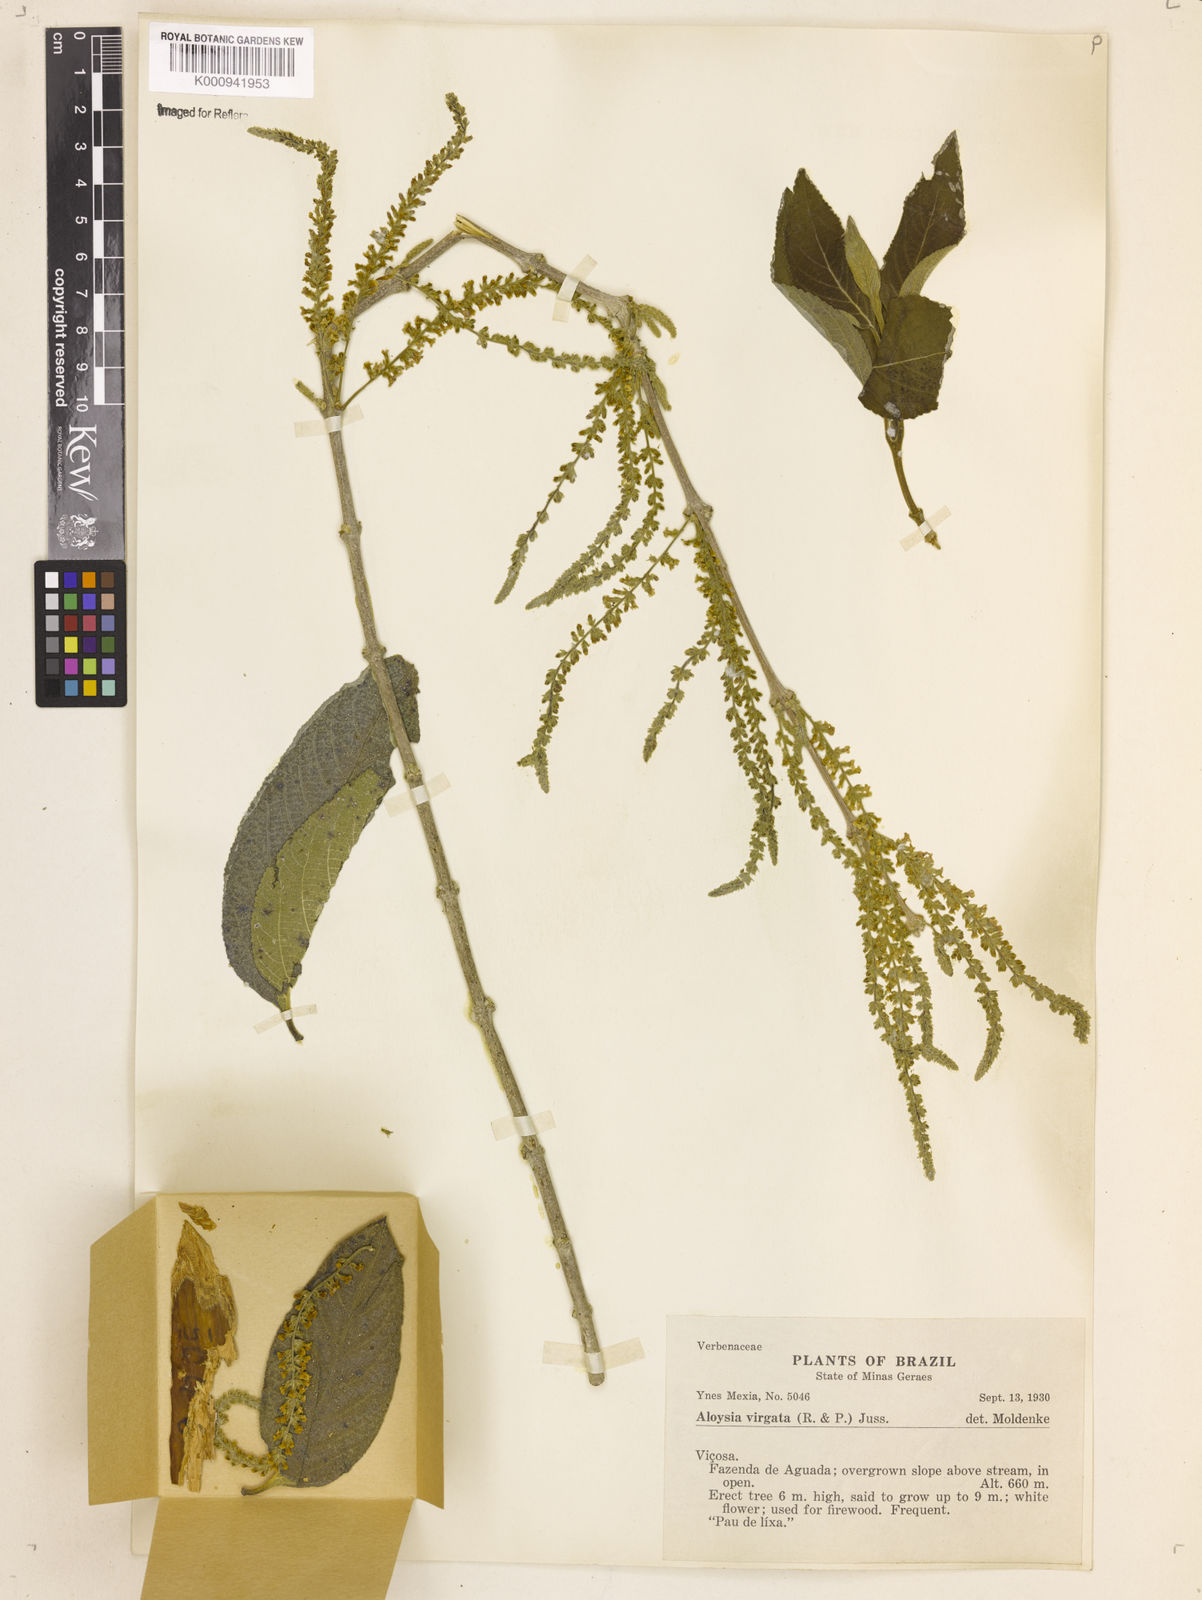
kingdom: Plantae
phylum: Tracheophyta
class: Magnoliopsida
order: Lamiales
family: Verbenaceae
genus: Aloysia
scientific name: Aloysia
